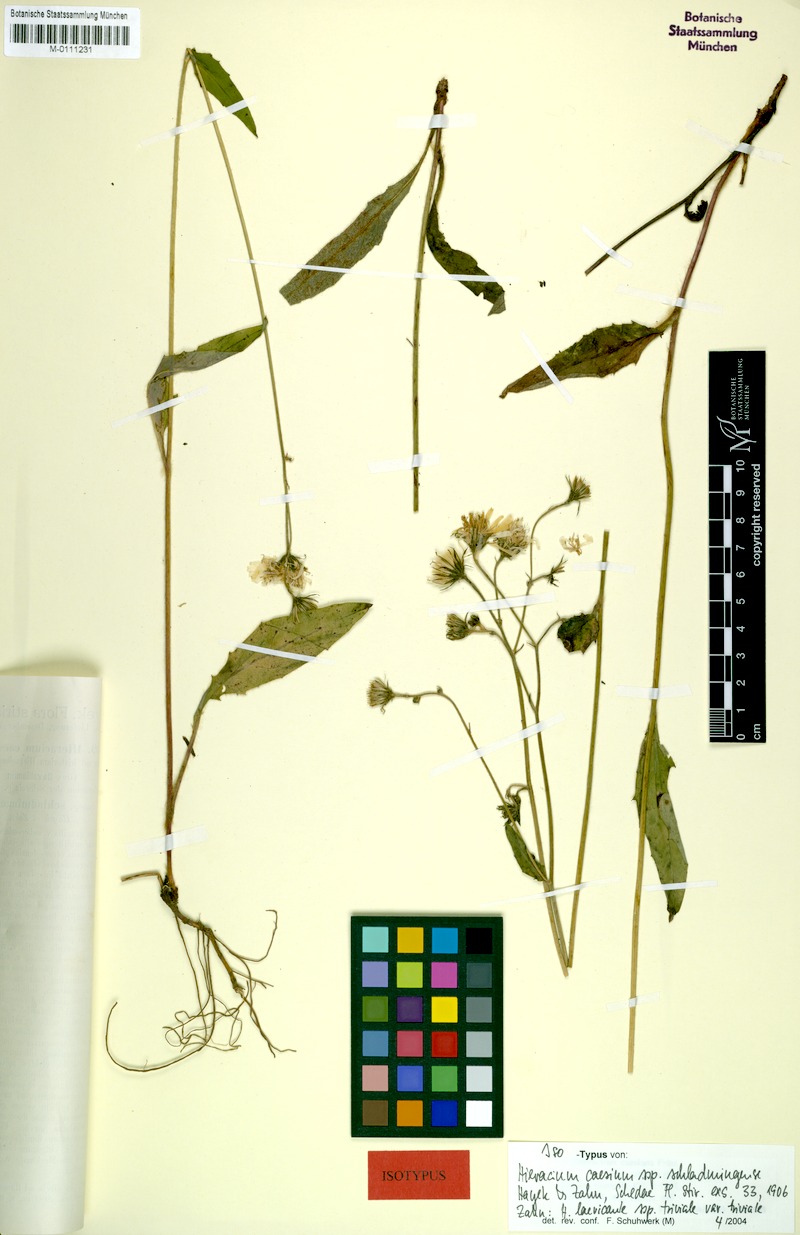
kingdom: Plantae
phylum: Tracheophyta
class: Magnoliopsida
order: Asterales
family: Asteraceae
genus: Hieracium
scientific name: Hieracium caesium
